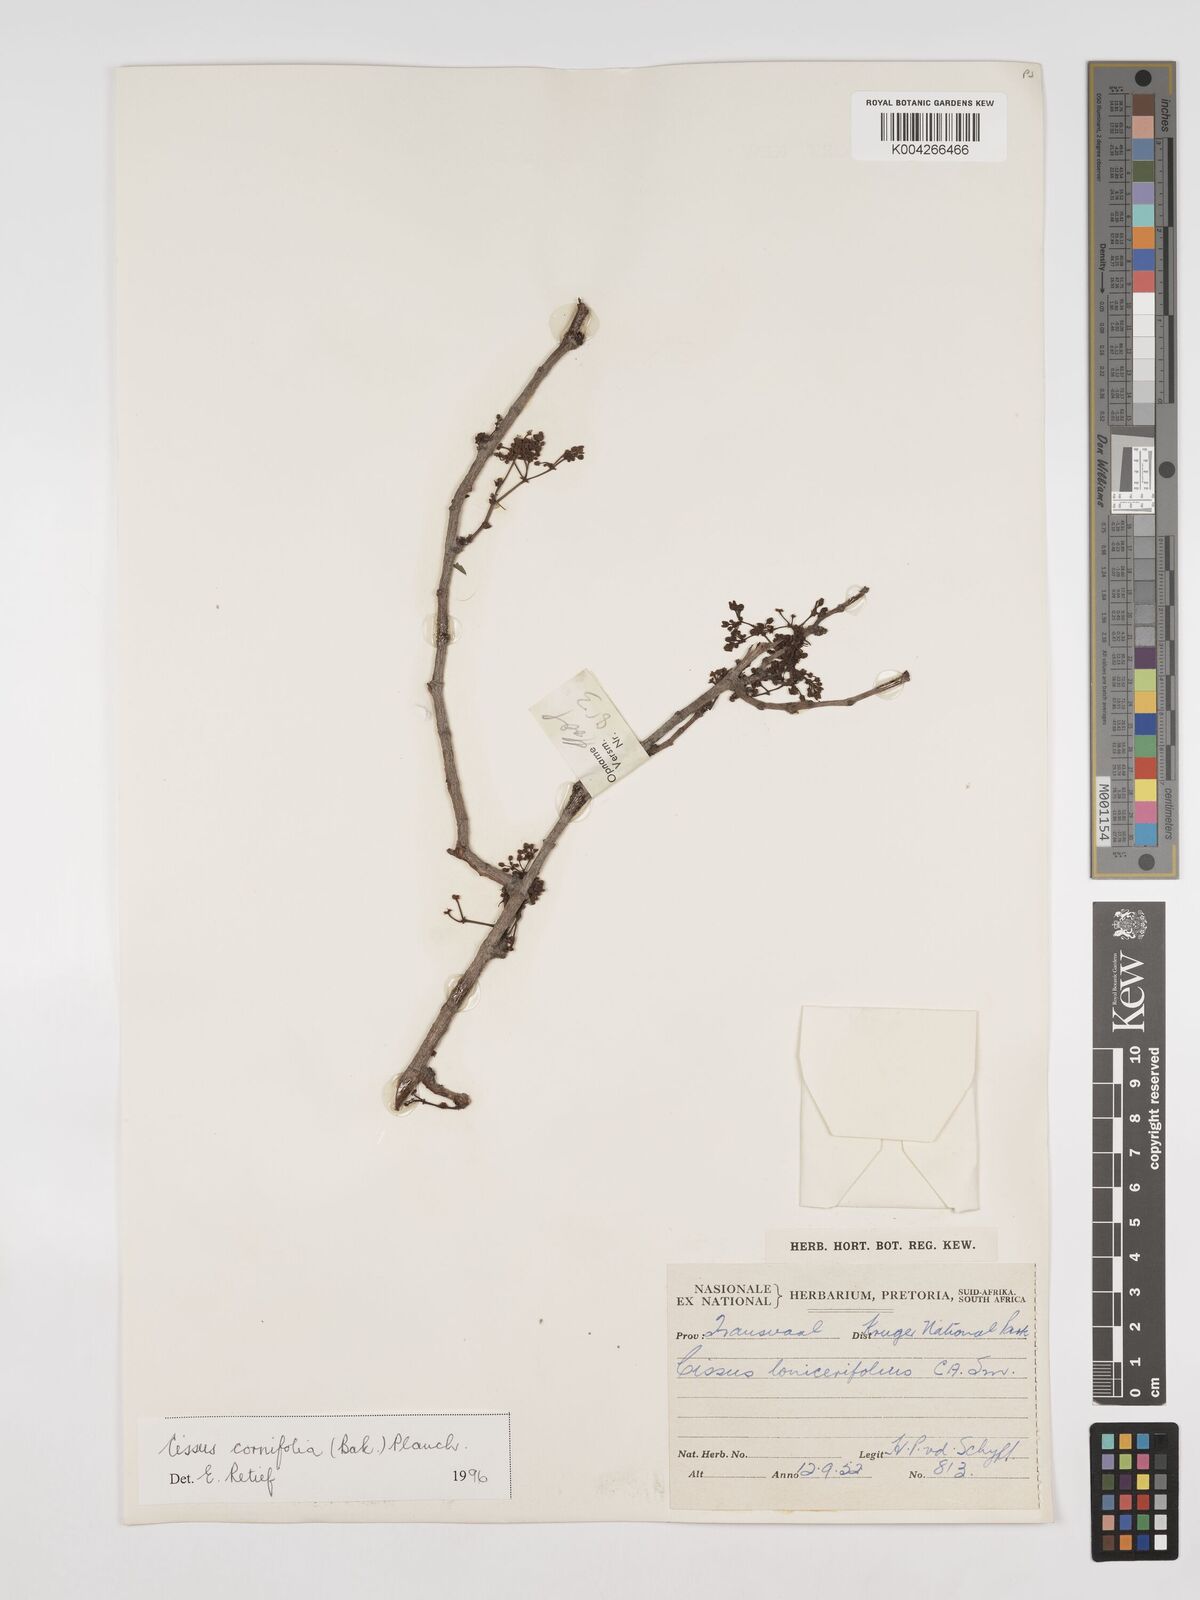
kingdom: Plantae
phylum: Tracheophyta
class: Magnoliopsida
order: Vitales
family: Vitaceae
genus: Cissus
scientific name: Cissus cornifolia
